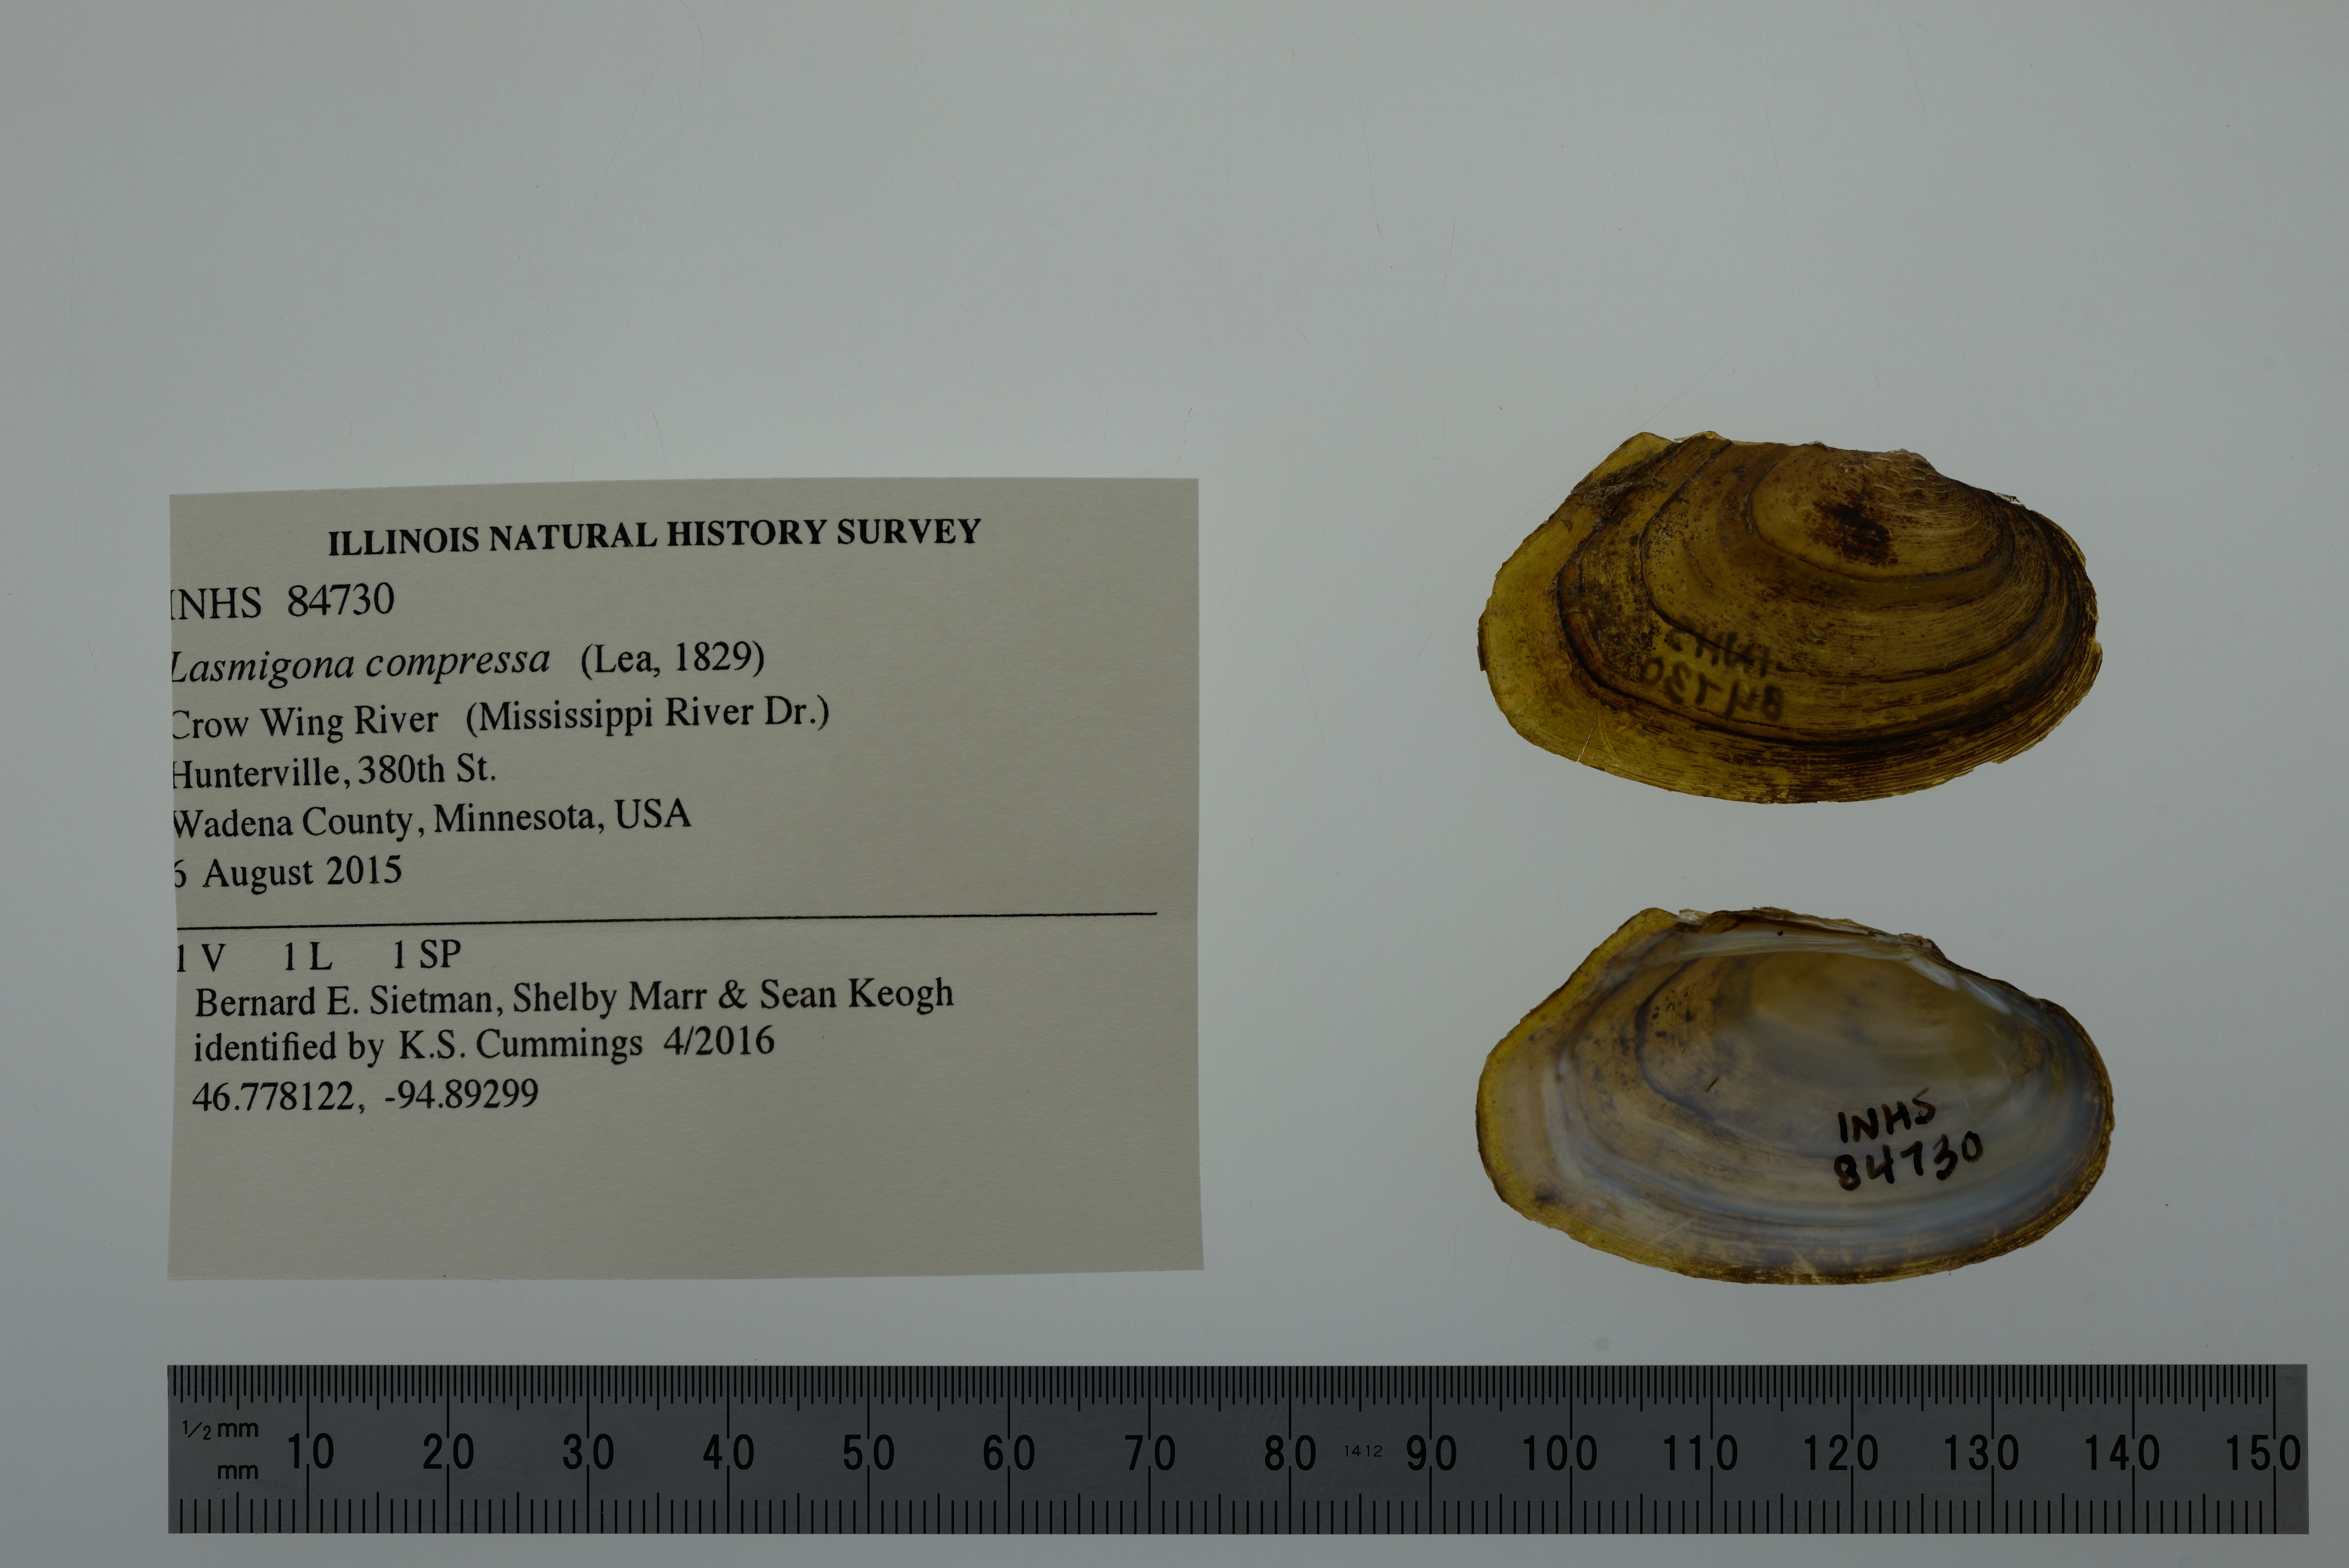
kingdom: Animalia
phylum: Mollusca
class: Bivalvia
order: Unionida
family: Unionidae
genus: Lasmigona
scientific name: Lasmigona compressa
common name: Creek heelsplitter
